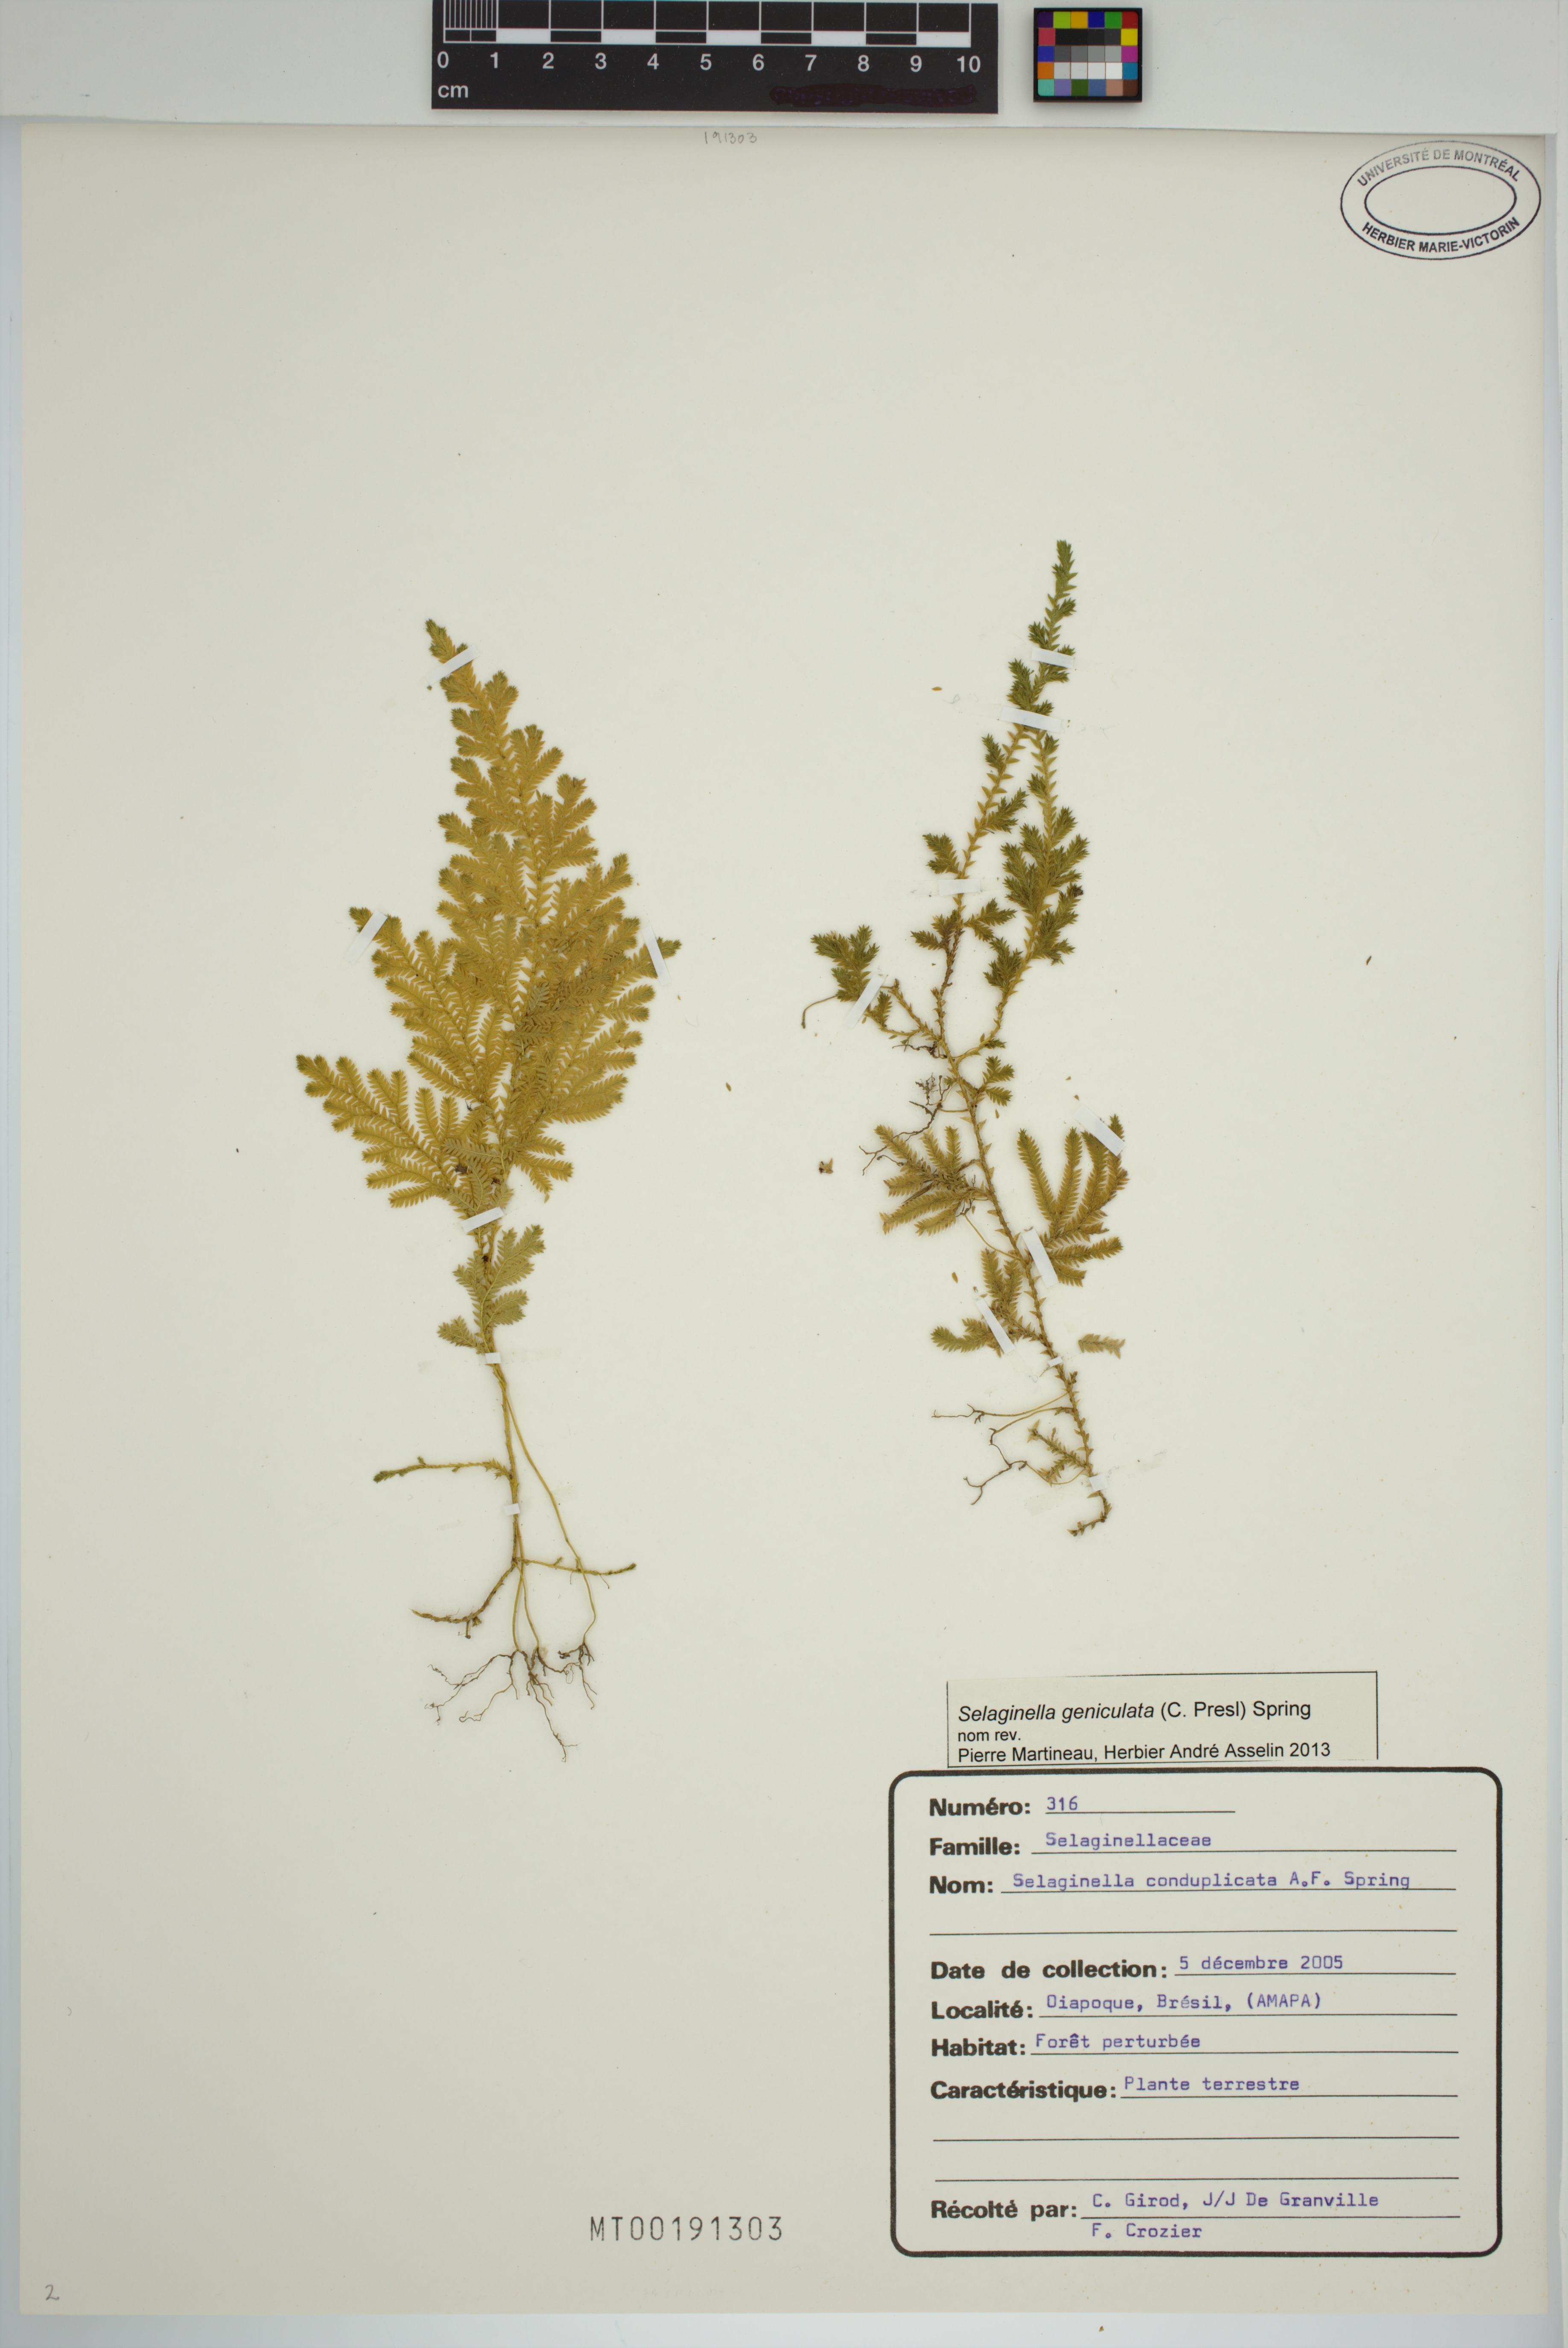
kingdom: Plantae
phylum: Tracheophyta
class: Lycopodiopsida
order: Selaginellales
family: Selaginellaceae
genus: Selaginella
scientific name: Selaginella geniculata
